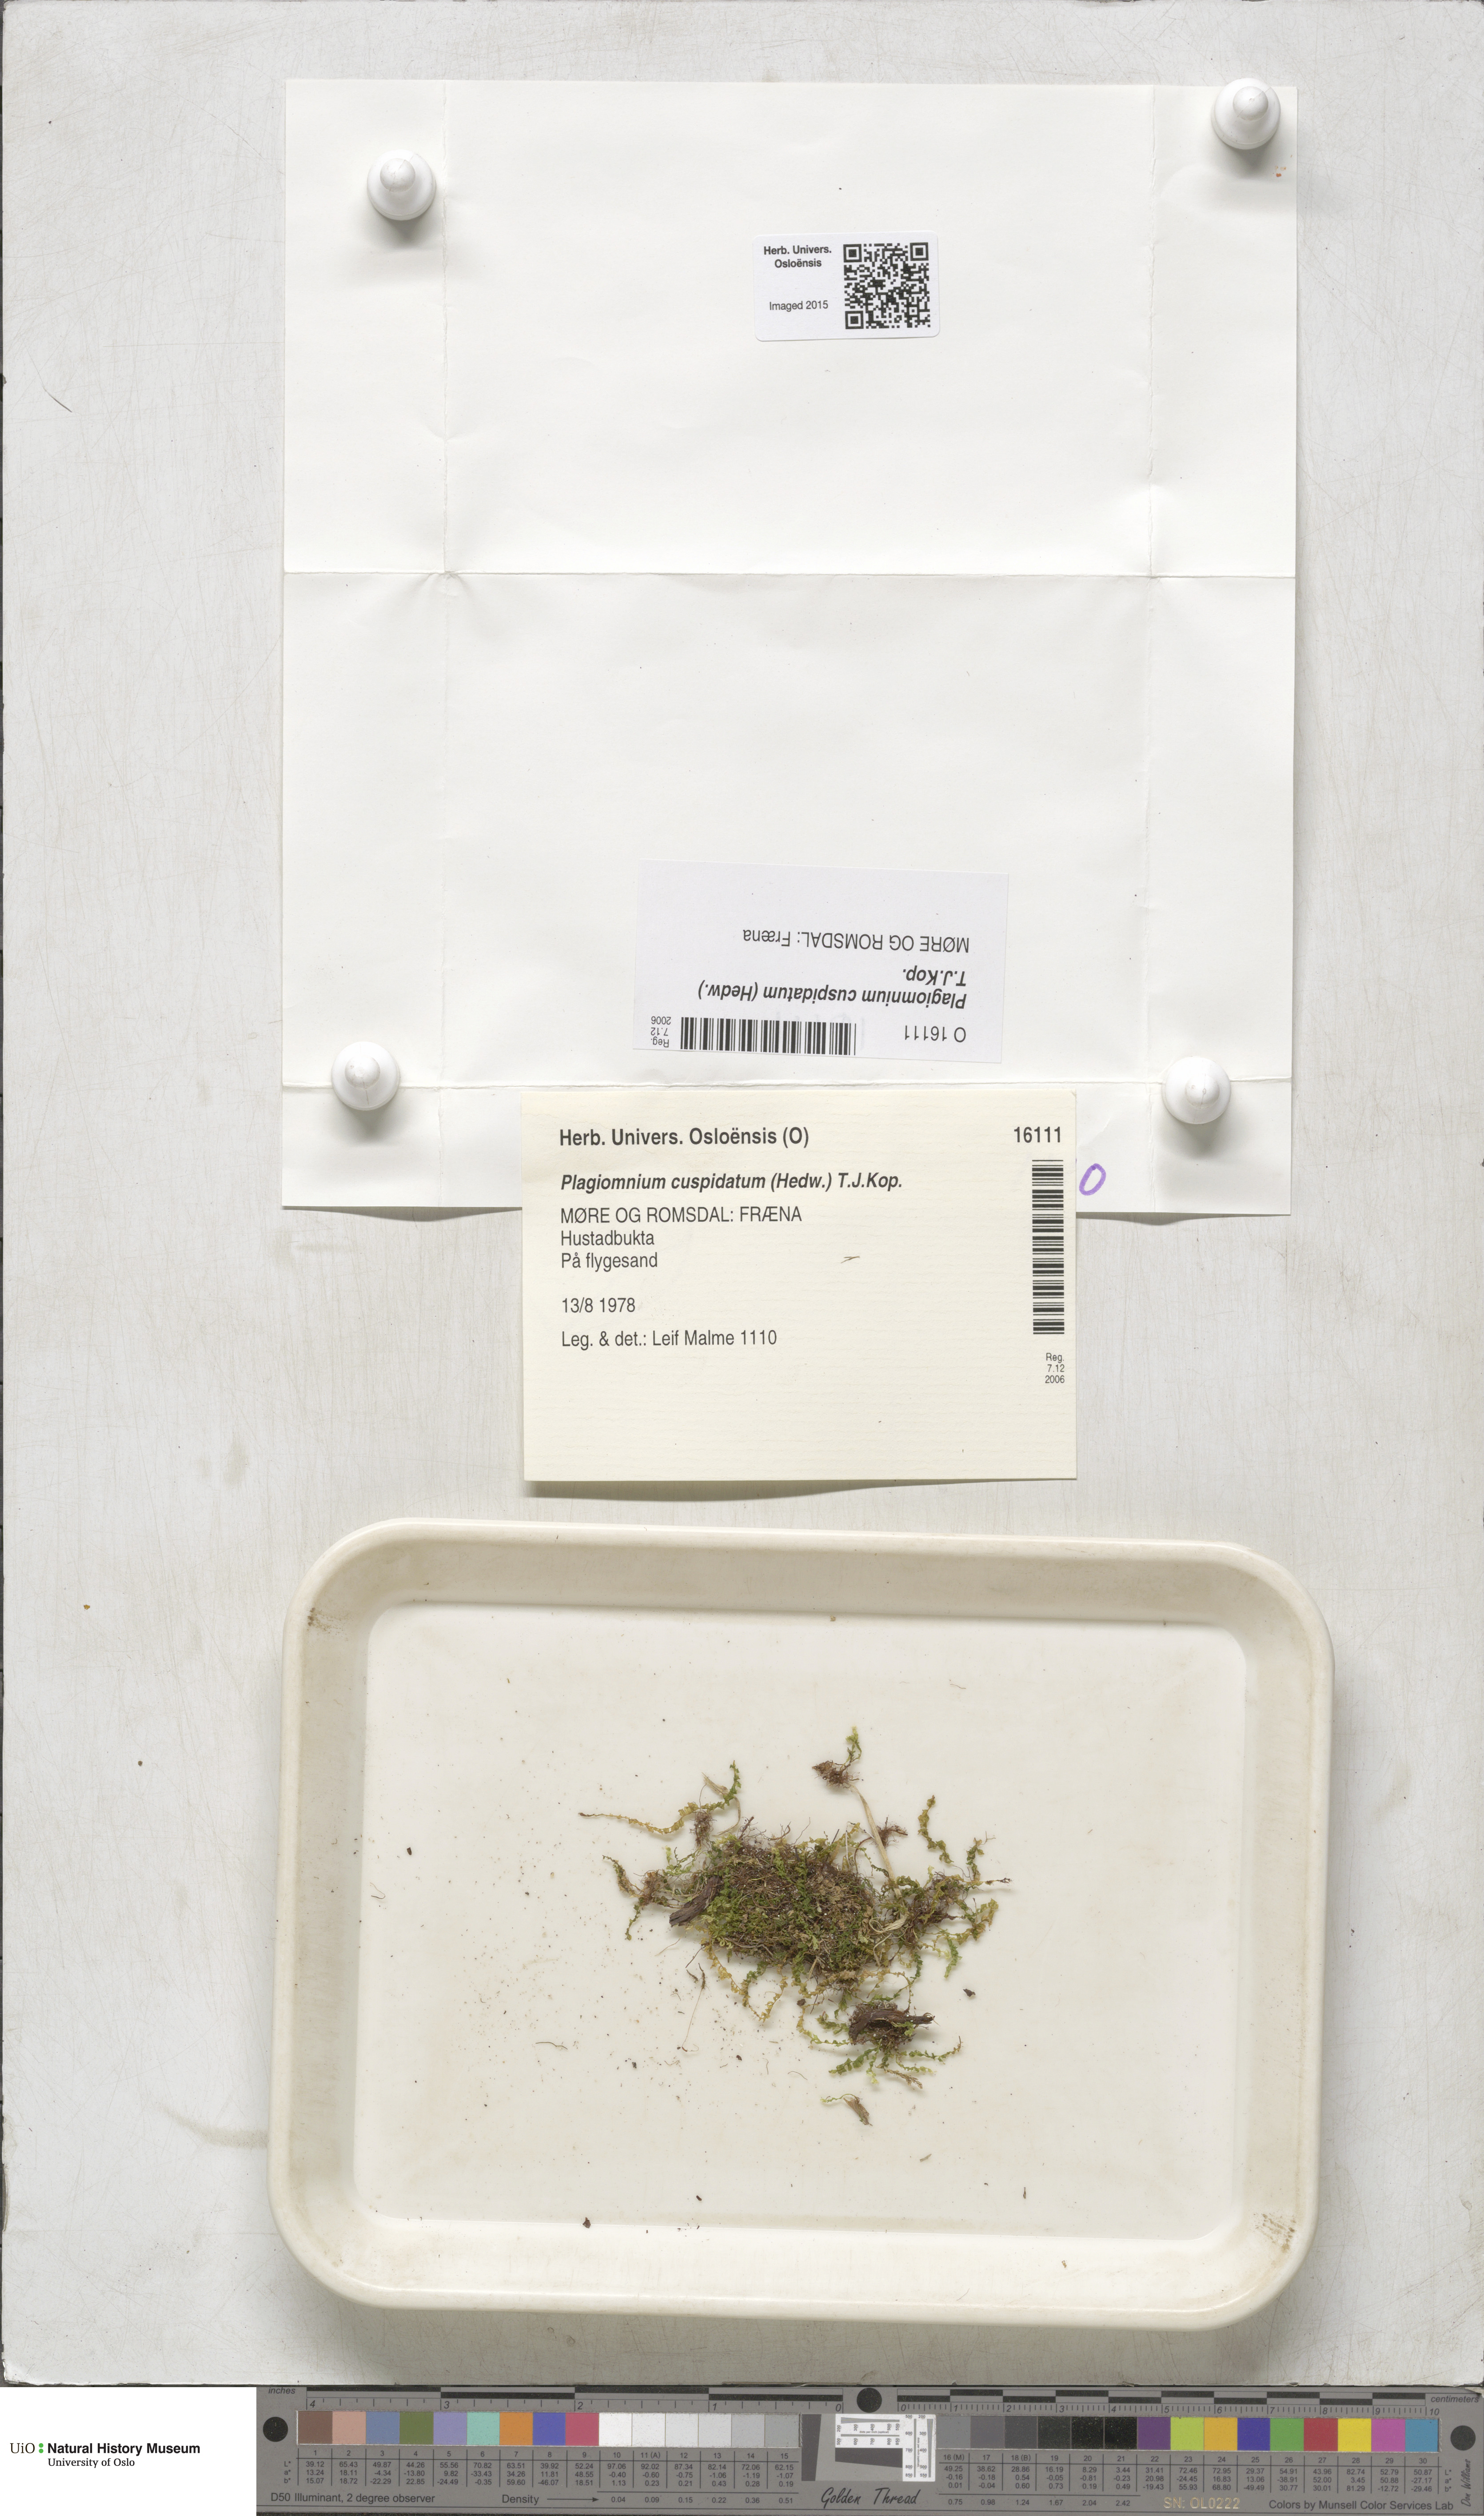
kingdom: Plantae
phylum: Bryophyta
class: Bryopsida
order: Bryales
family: Mniaceae
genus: Plagiomnium
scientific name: Plagiomnium cuspidatum
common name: Woodsy leafy moss
